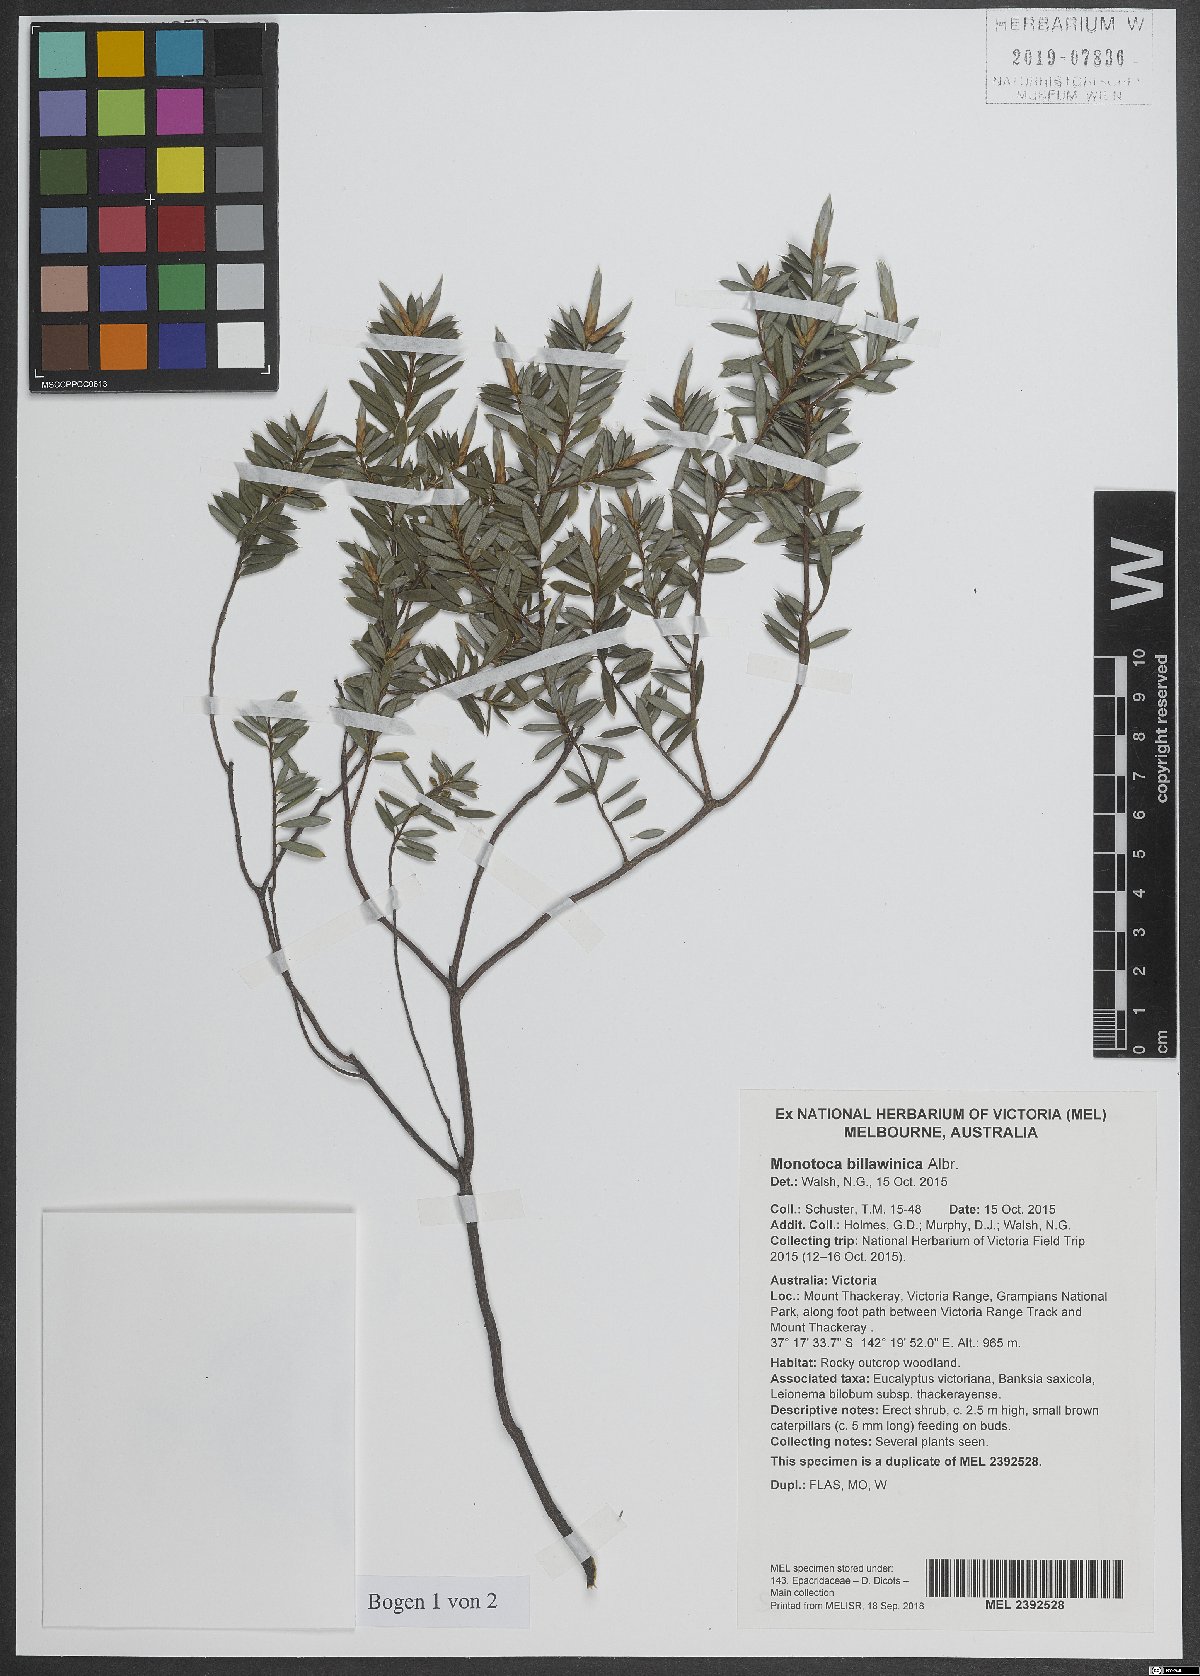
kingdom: Plantae
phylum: Tracheophyta
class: Magnoliopsida
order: Ericales
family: Ericaceae
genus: Monotoca
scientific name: Monotoca billawinica
